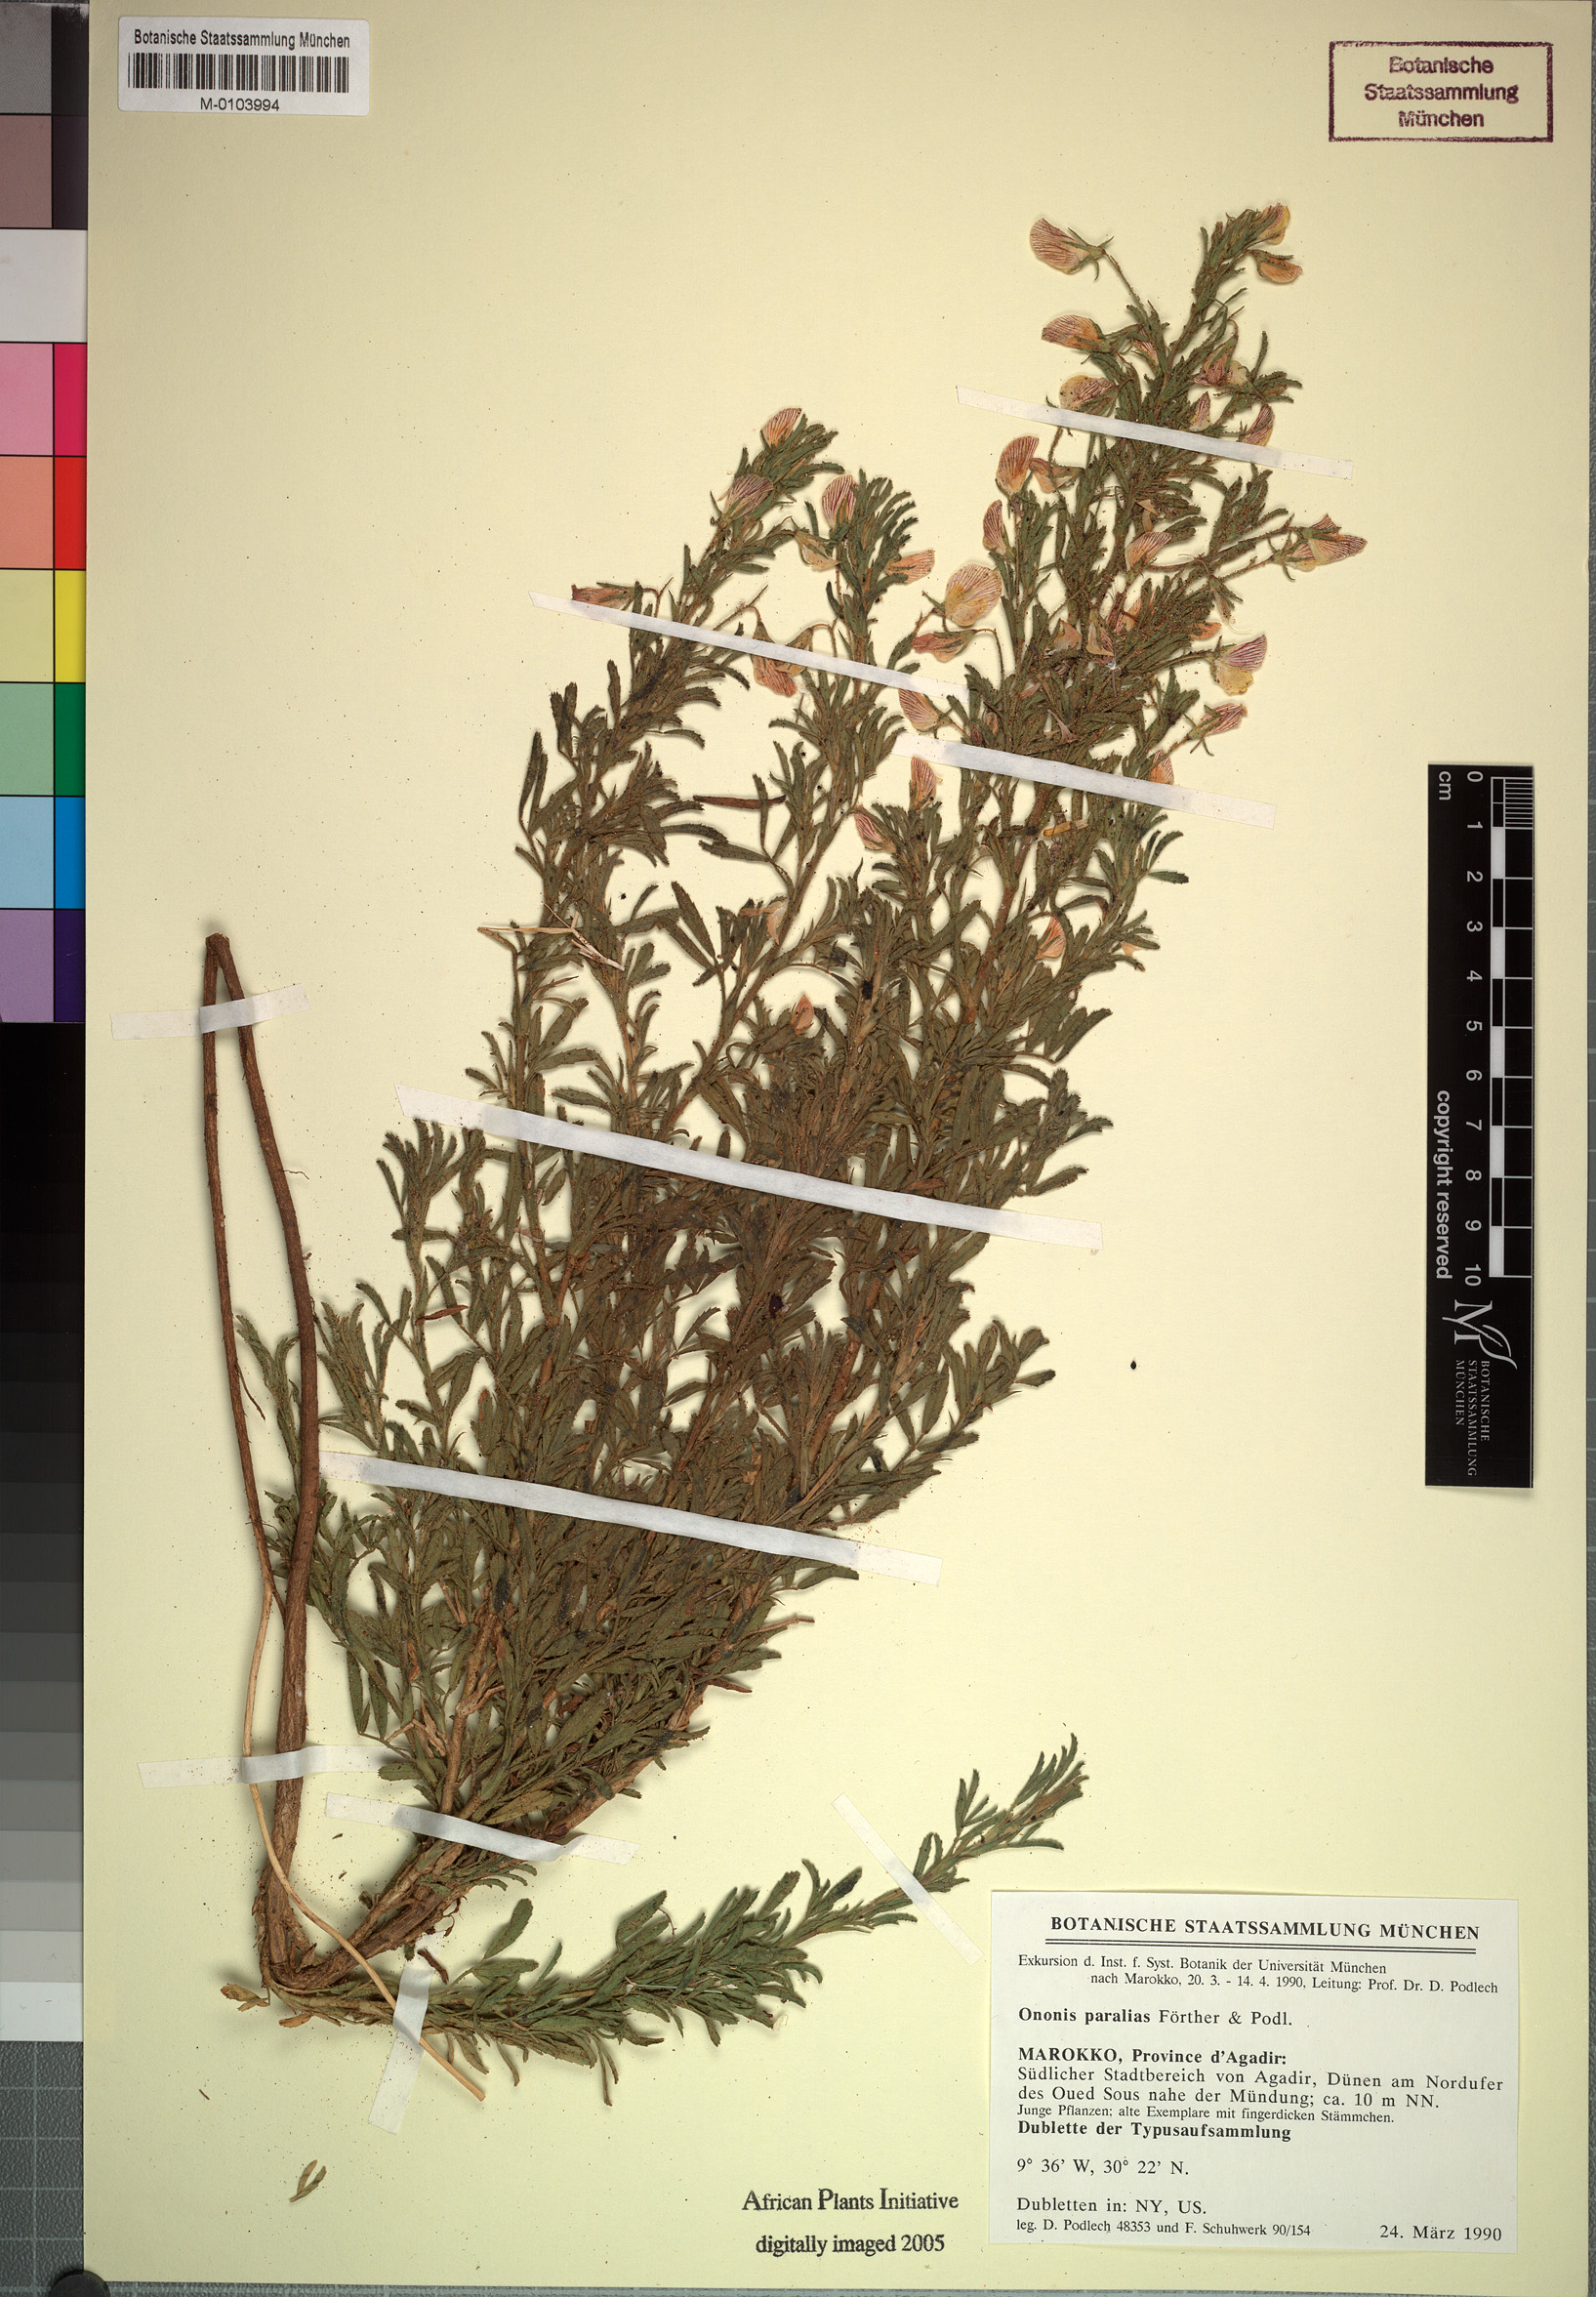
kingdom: Plantae
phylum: Tracheophyta
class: Magnoliopsida
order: Fabales
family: Fabaceae
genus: Ononis
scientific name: Ononis angustissima
